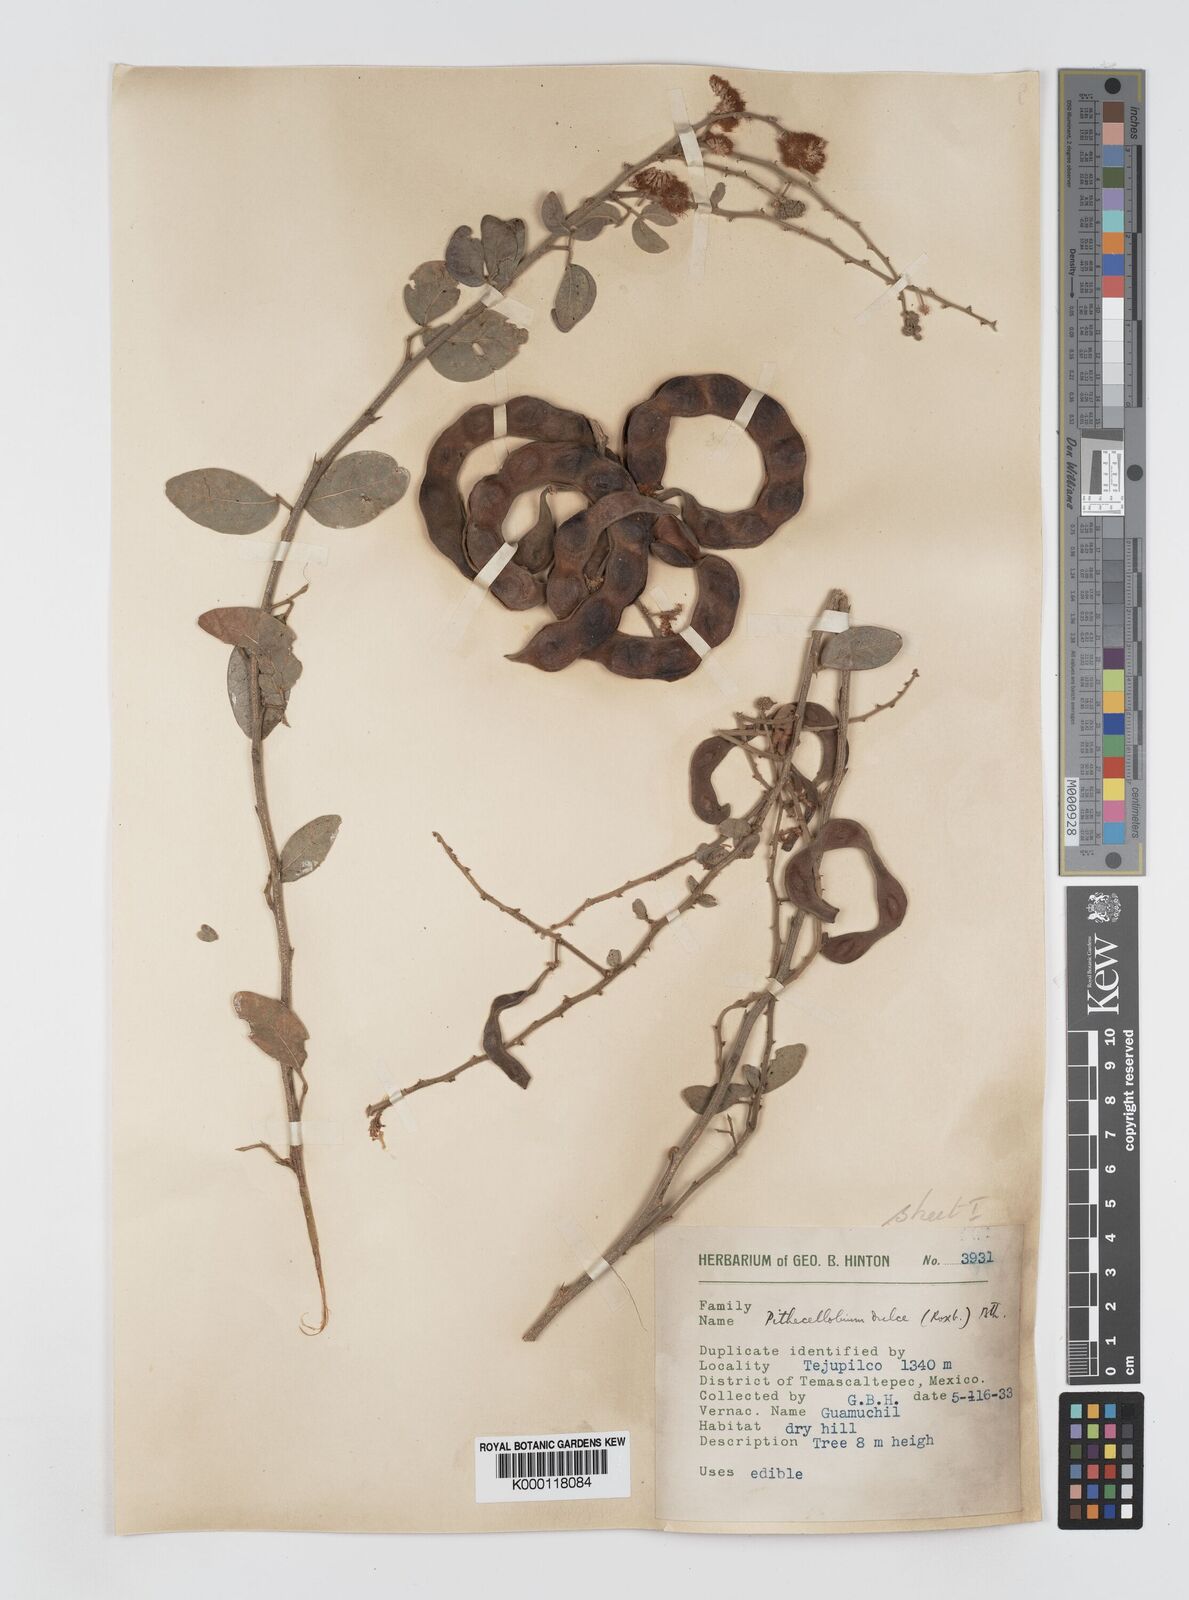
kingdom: Plantae
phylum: Tracheophyta
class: Magnoliopsida
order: Fabales
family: Fabaceae
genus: Pithecellobium
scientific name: Pithecellobium dulce
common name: Monkeypod
